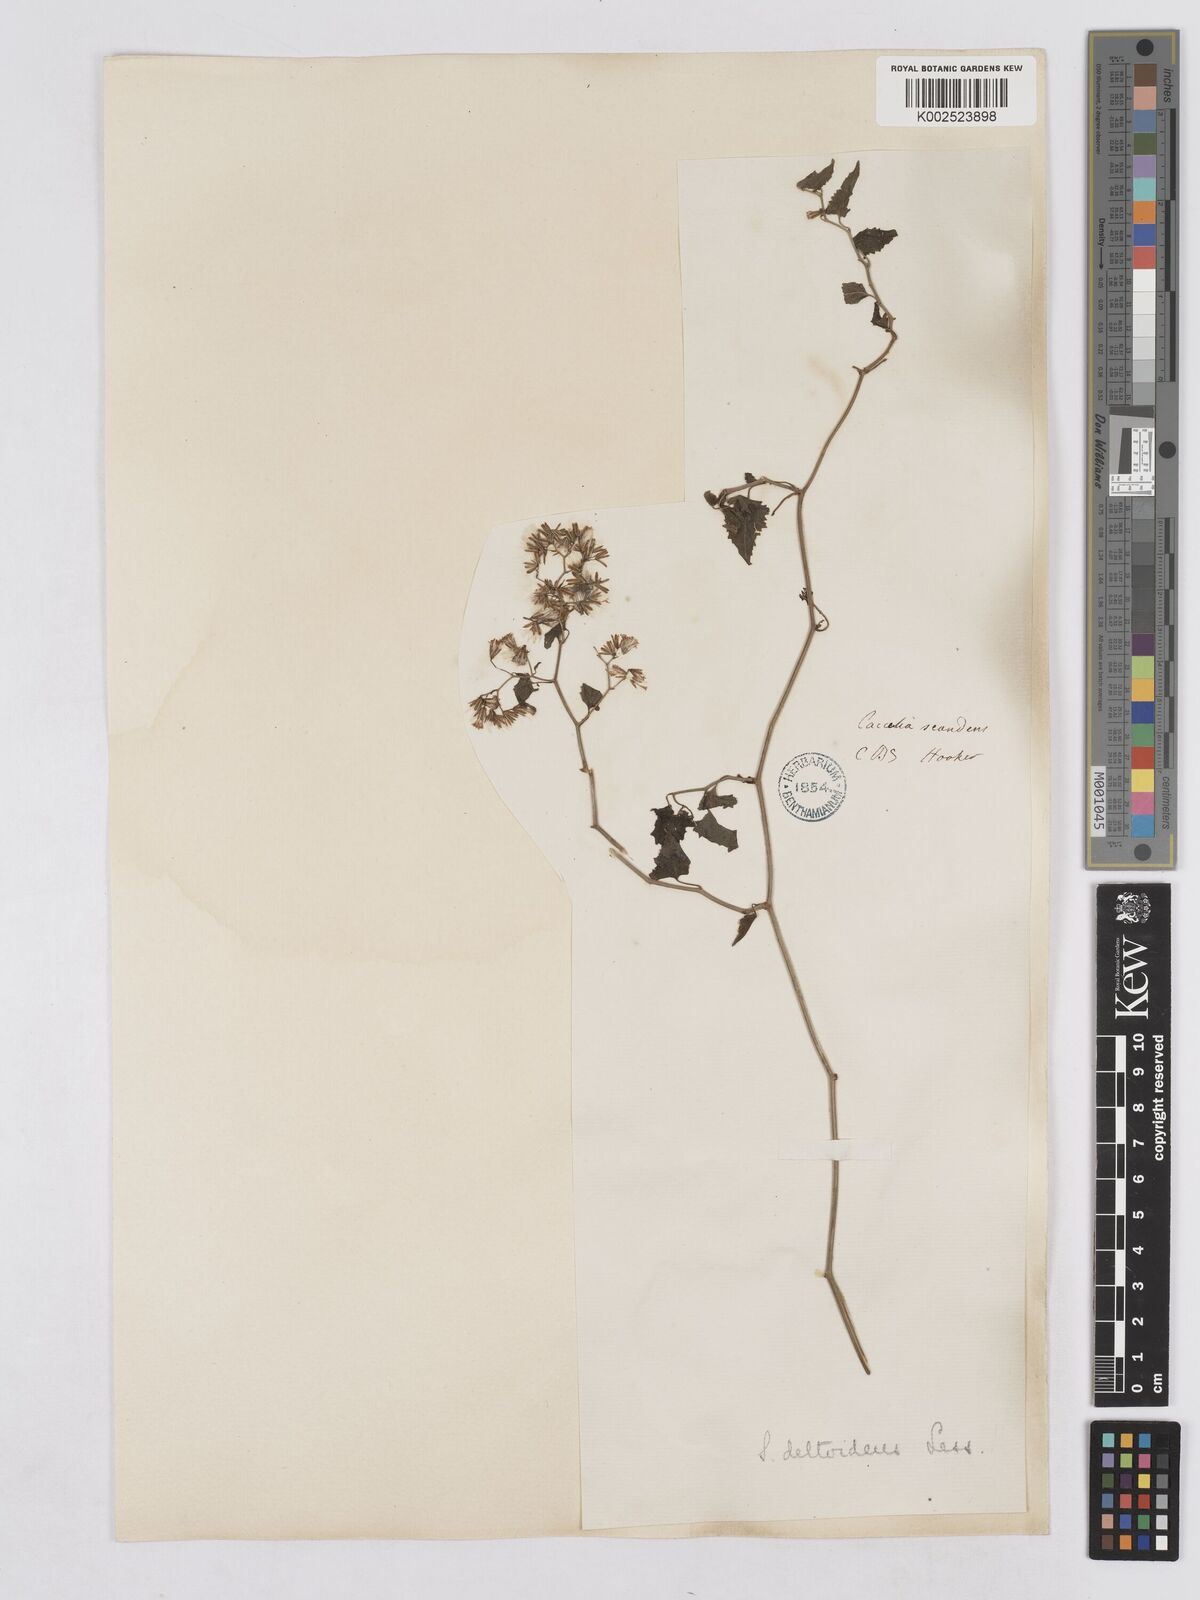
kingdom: Plantae
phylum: Tracheophyta
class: Magnoliopsida
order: Asterales
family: Asteraceae
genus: Senecio
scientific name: Senecio deltoideus
